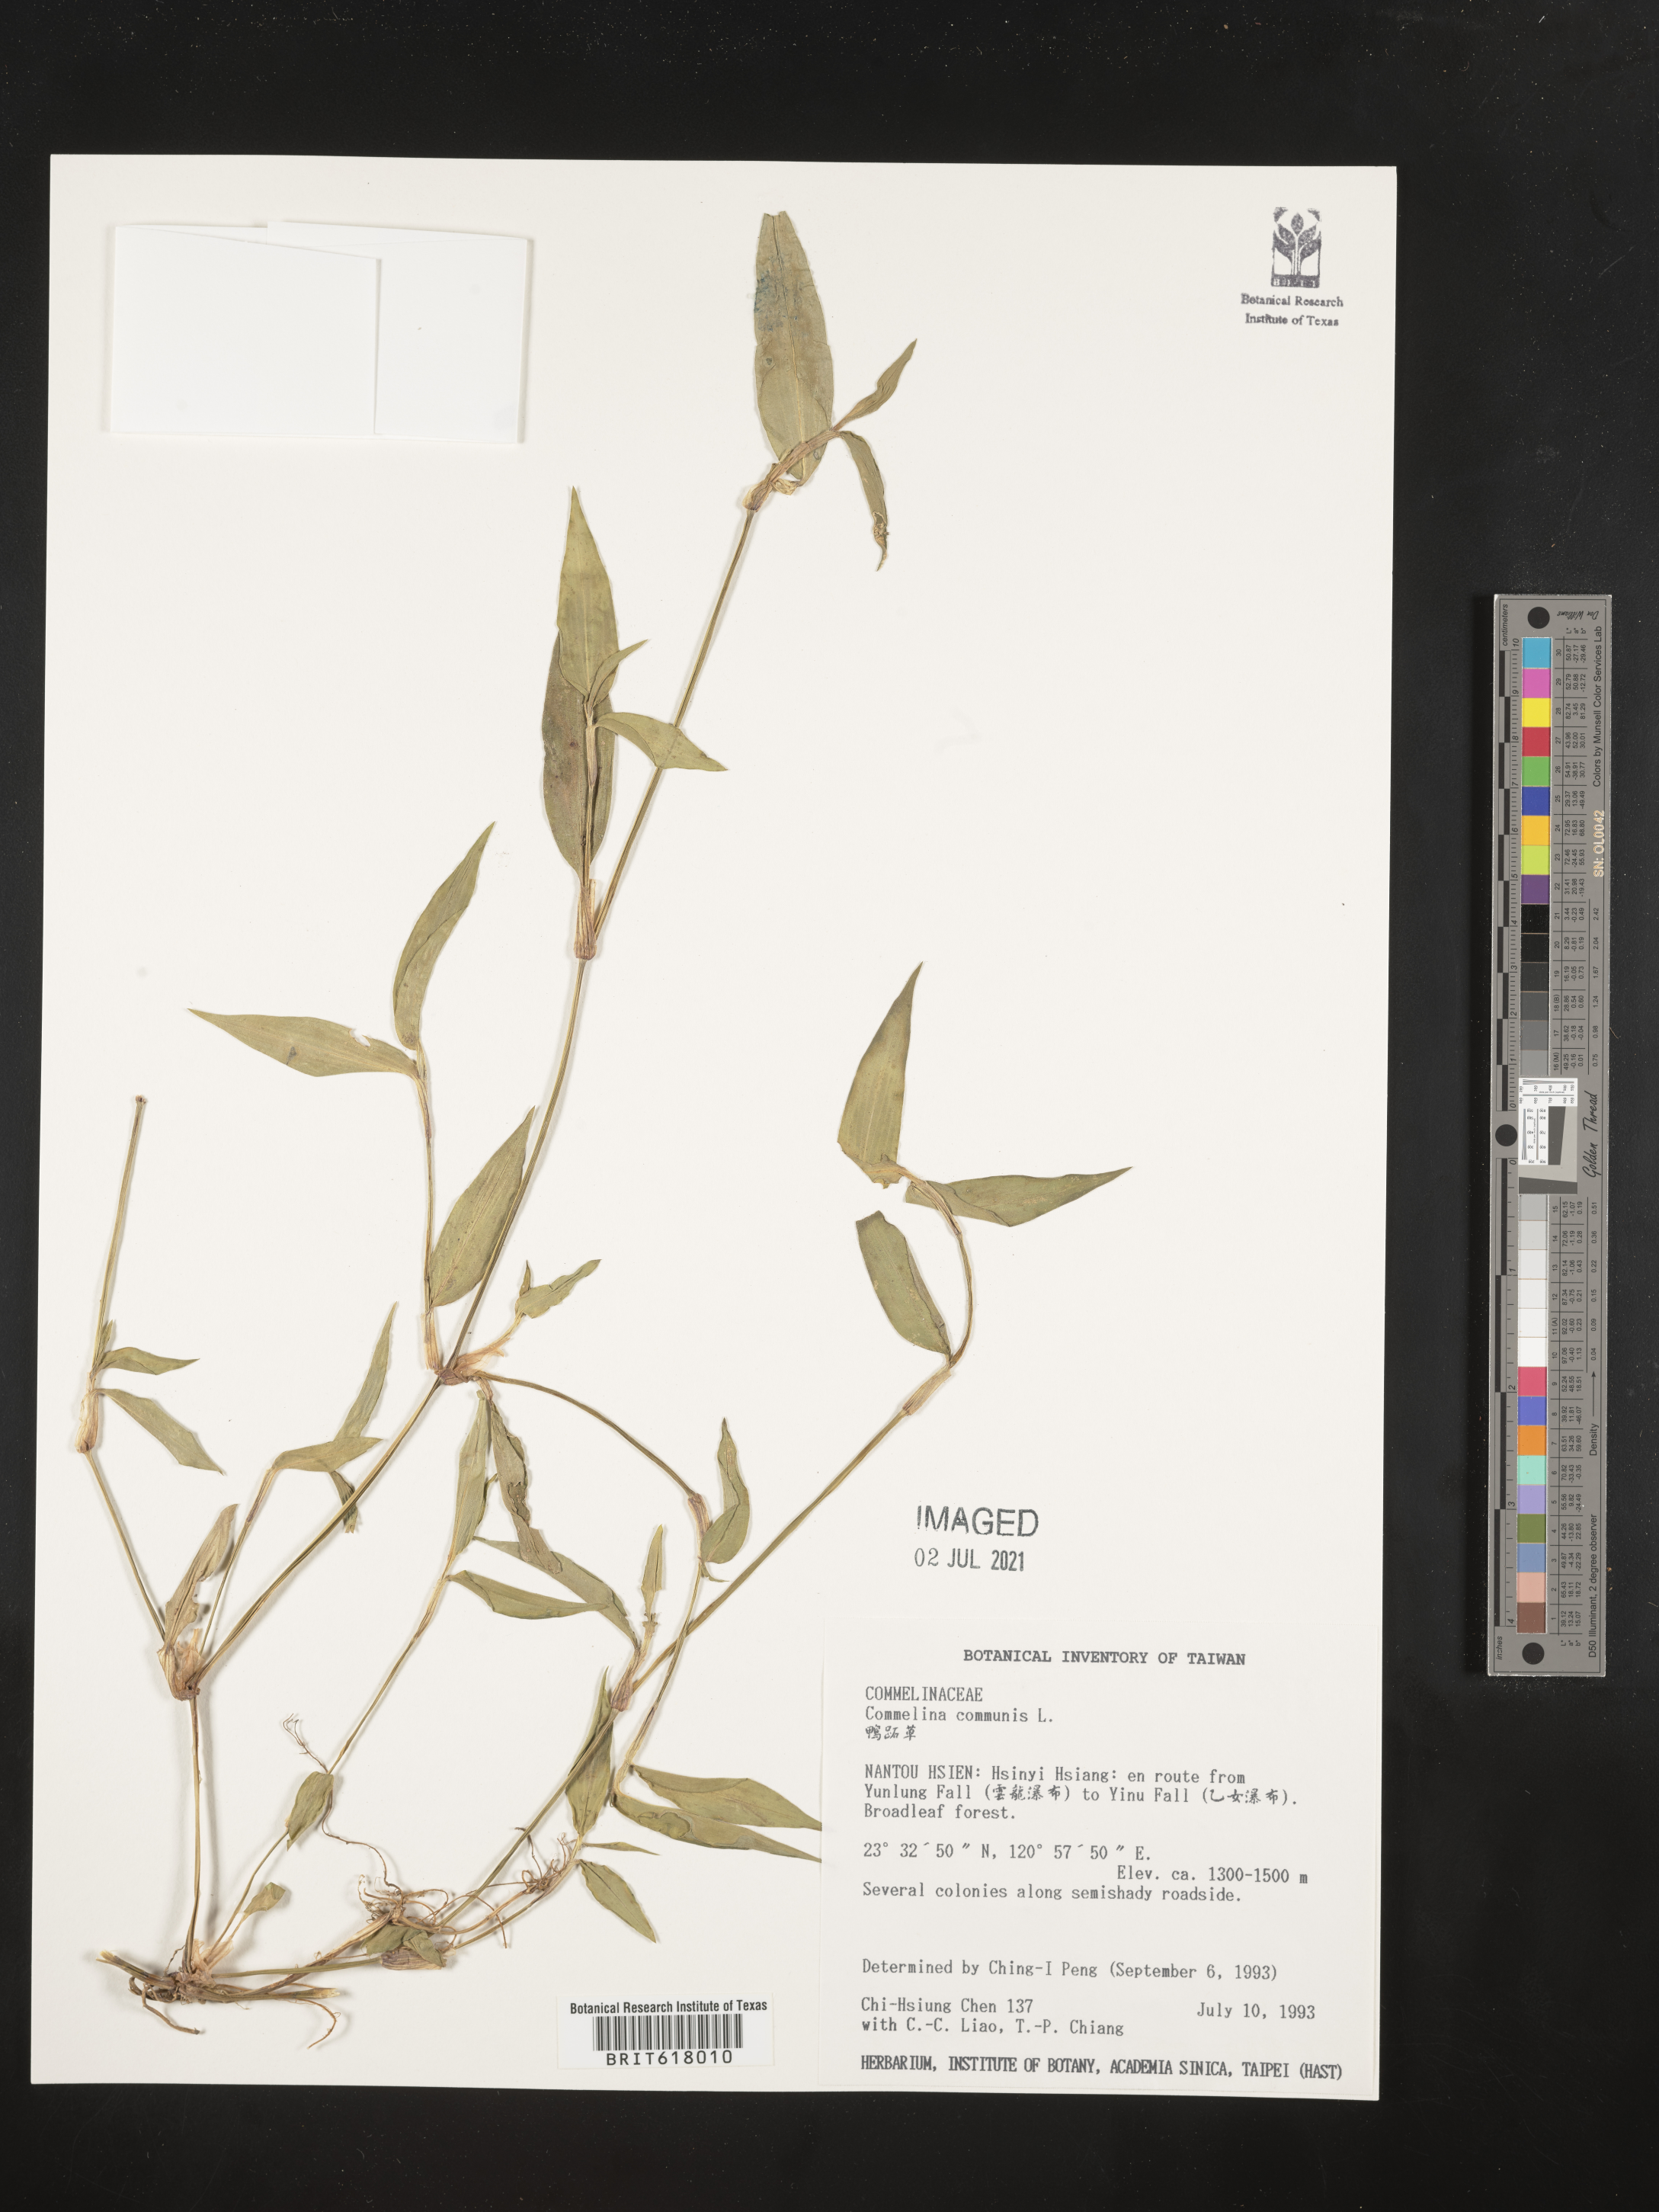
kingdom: Plantae
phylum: Tracheophyta
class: Liliopsida
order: Commelinales
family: Commelinaceae
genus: Commelina
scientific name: Commelina communis
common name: Asiatic dayflower
